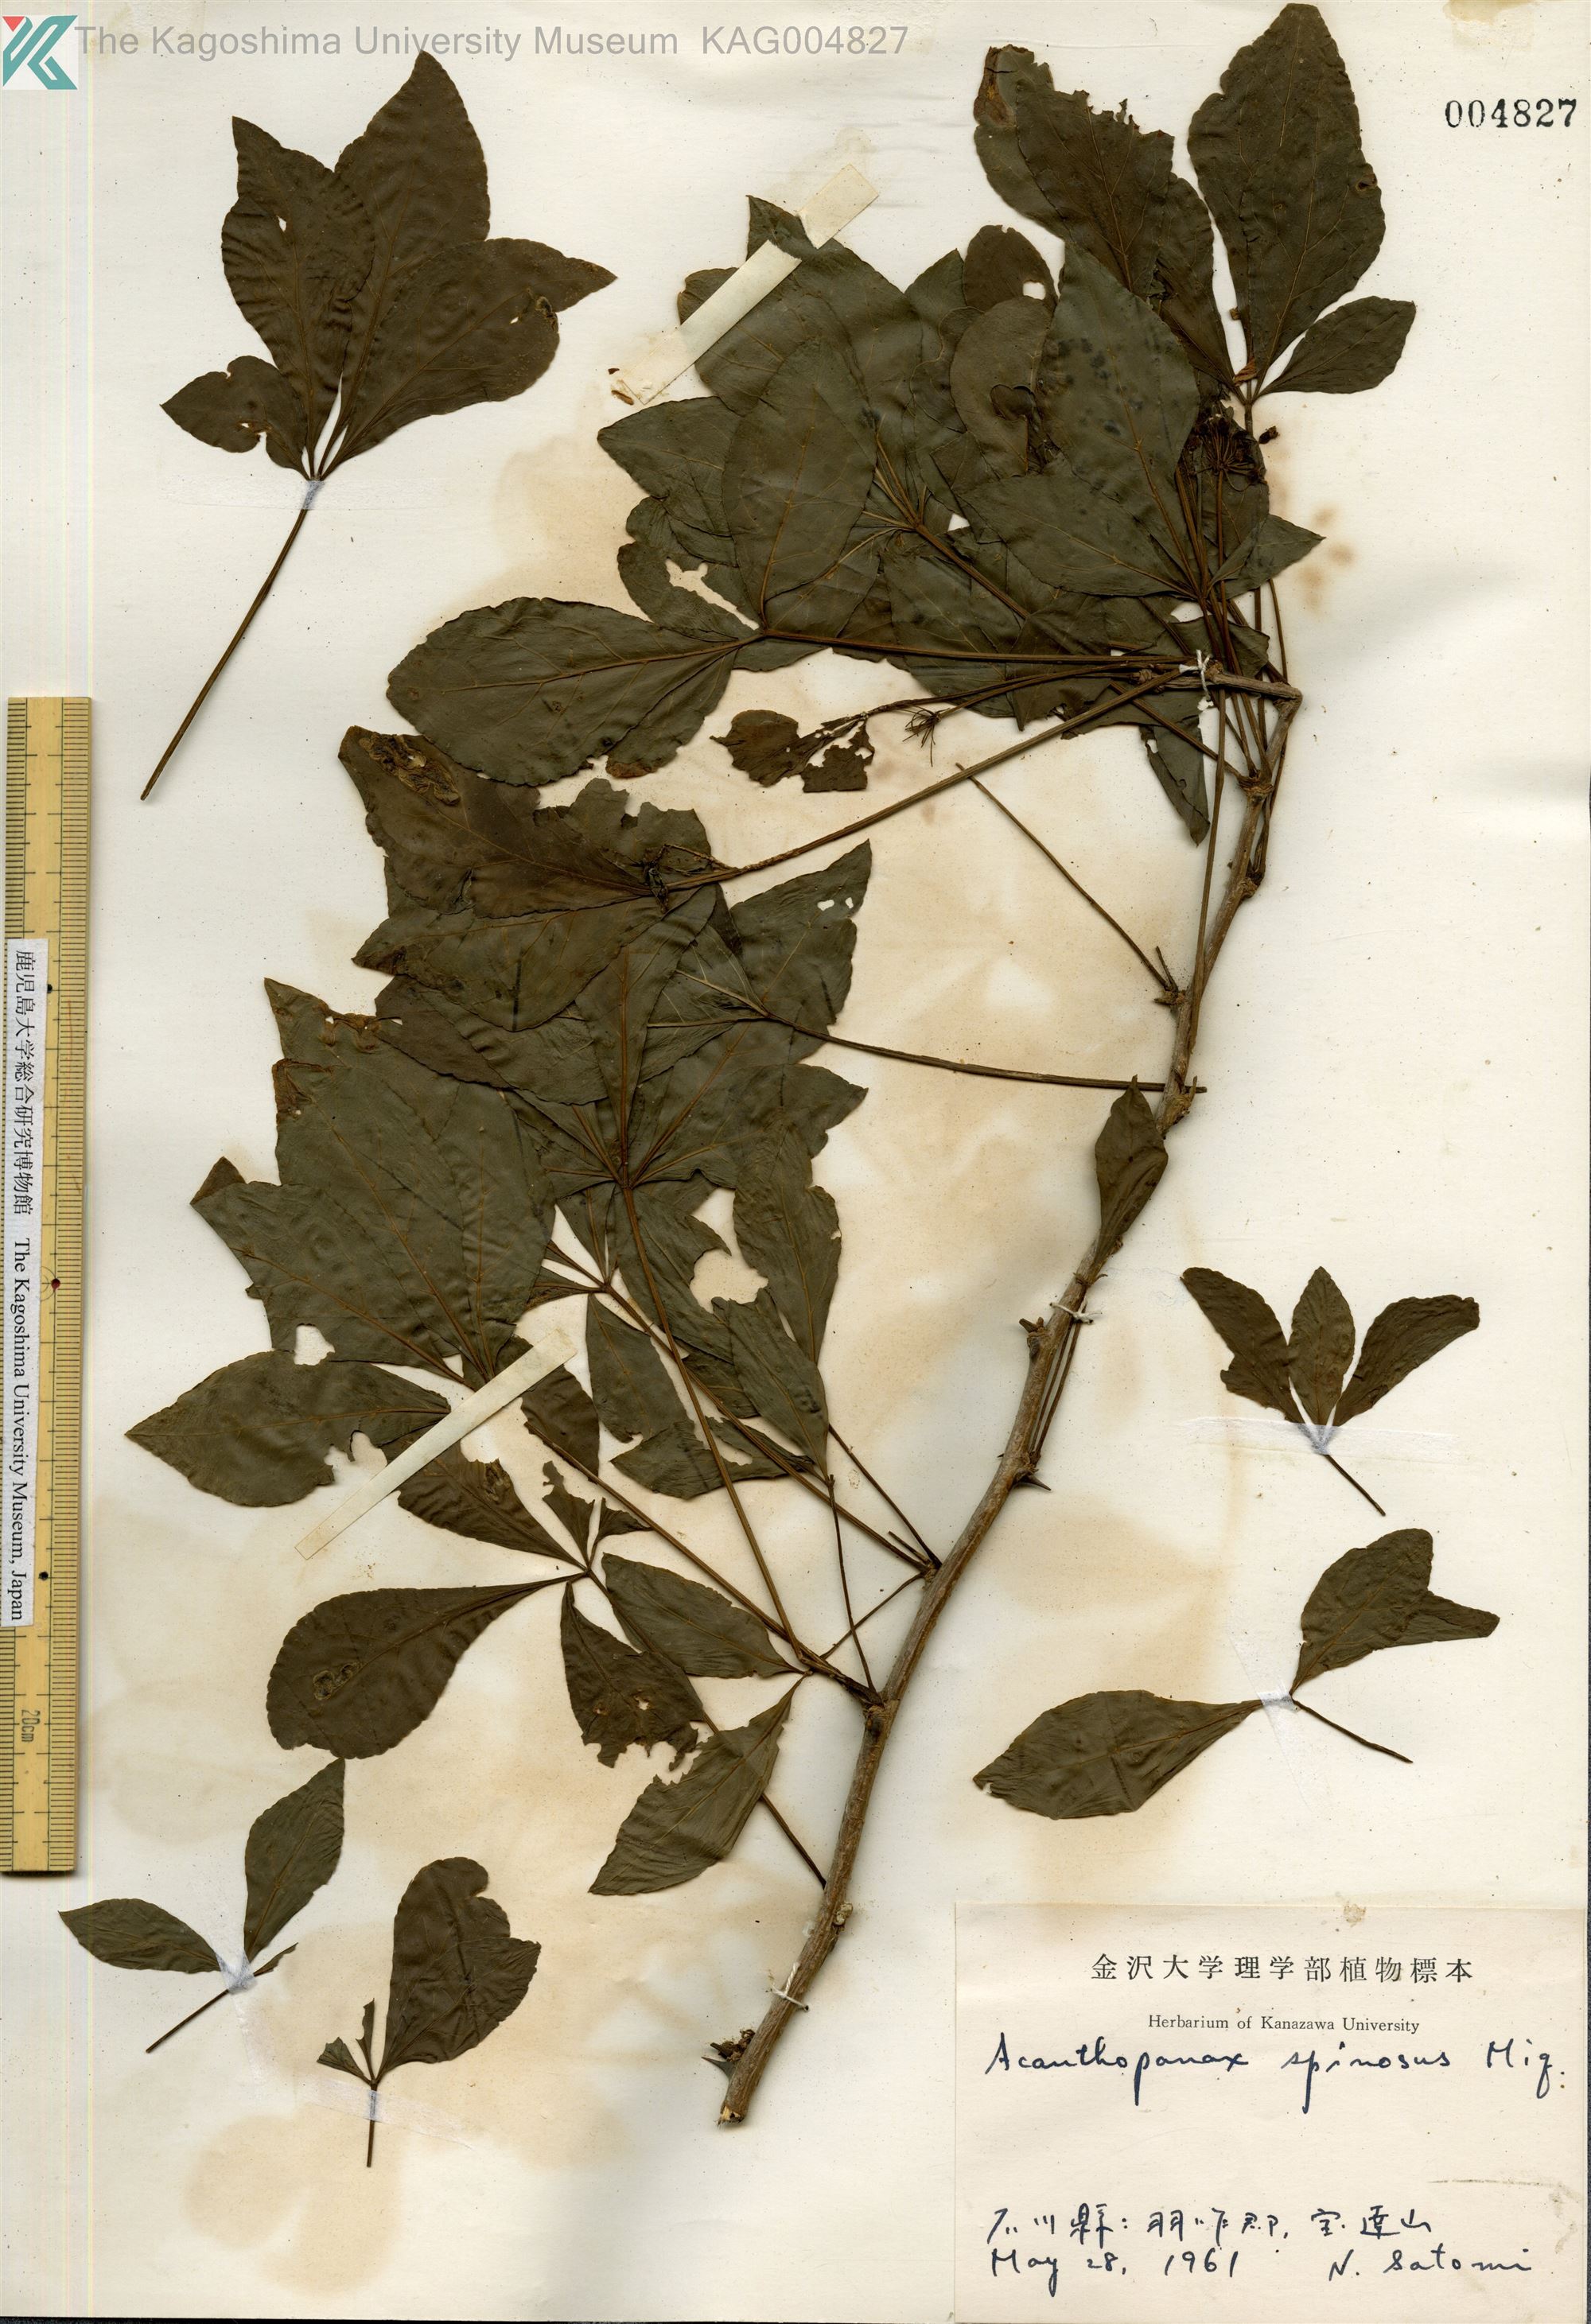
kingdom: Plantae
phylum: Tracheophyta
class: Magnoliopsida
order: Apiales
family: Araliaceae
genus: Eleutherococcus
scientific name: Eleutherococcus nodiflorus
